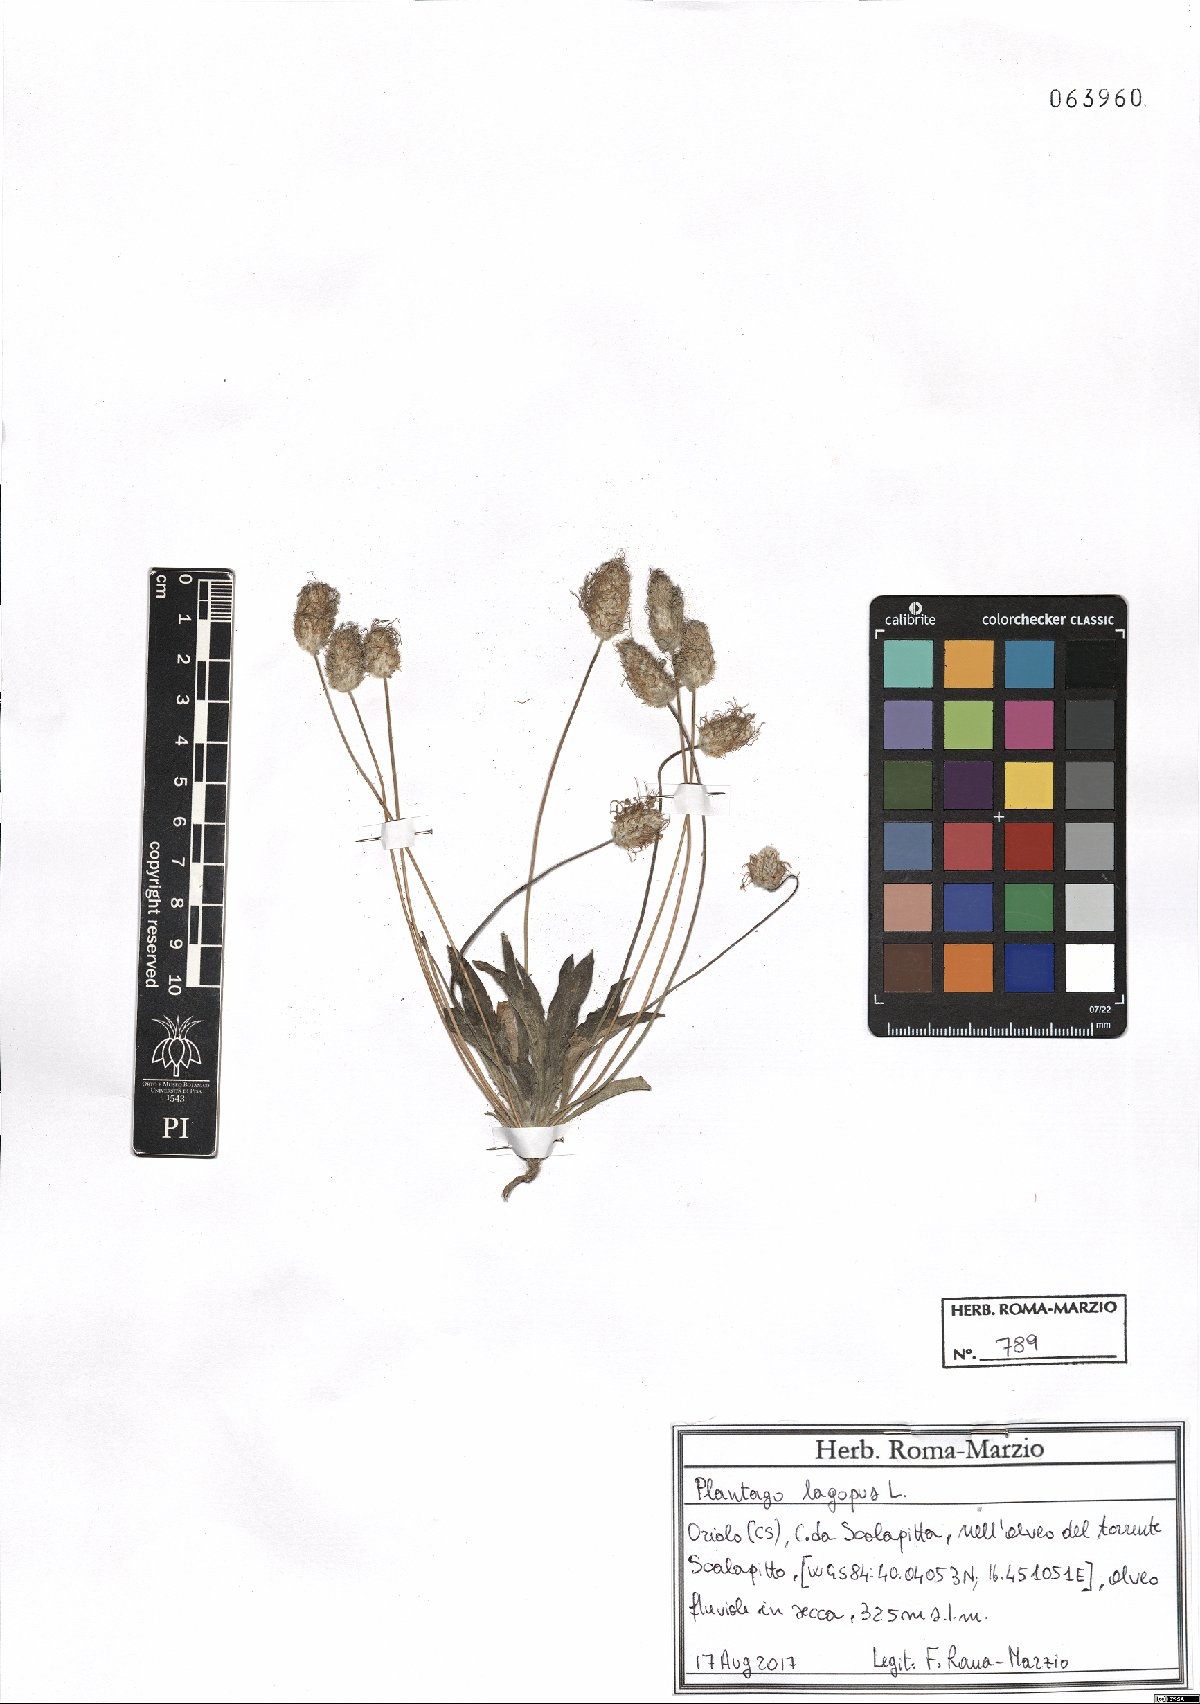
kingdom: Plantae
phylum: Tracheophyta
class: Magnoliopsida
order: Lamiales
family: Plantaginaceae
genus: Plantago
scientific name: Plantago lagopus
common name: Hare-foot plantain
